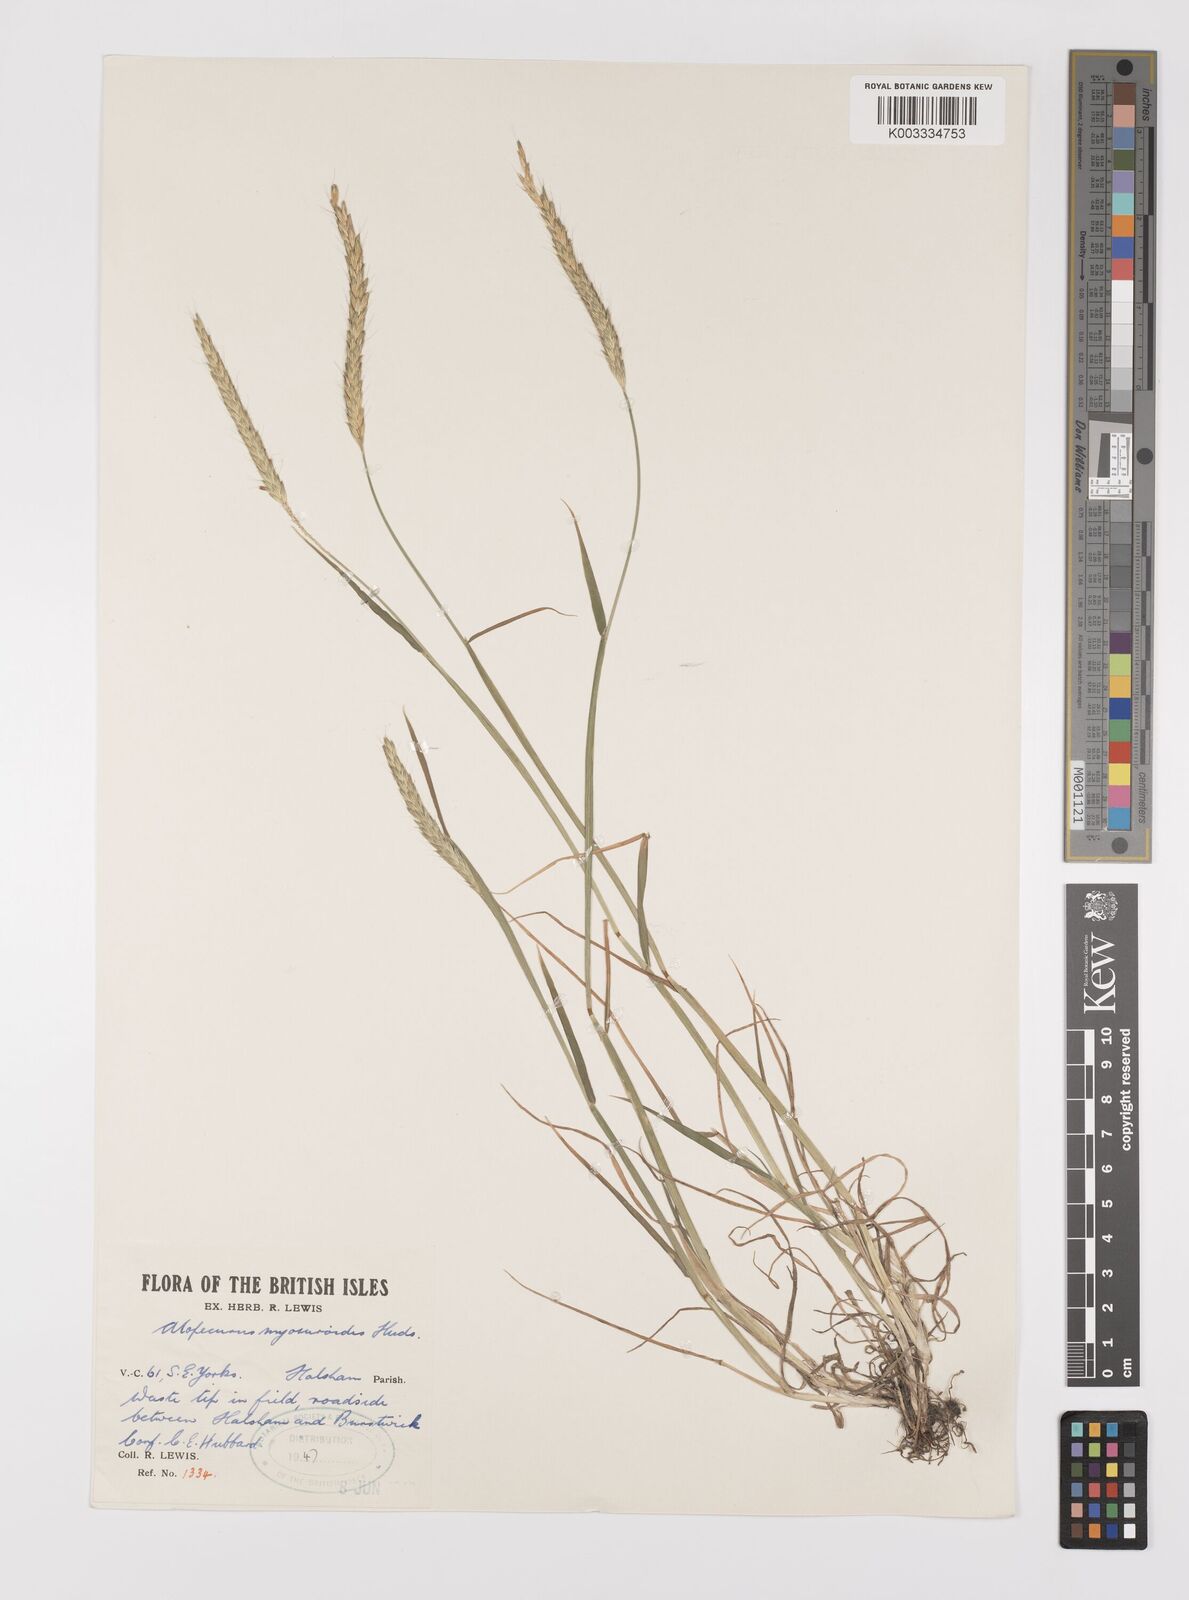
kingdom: Plantae
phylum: Tracheophyta
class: Liliopsida
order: Poales
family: Poaceae
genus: Alopecurus
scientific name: Alopecurus myosuroides
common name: Black-grass
